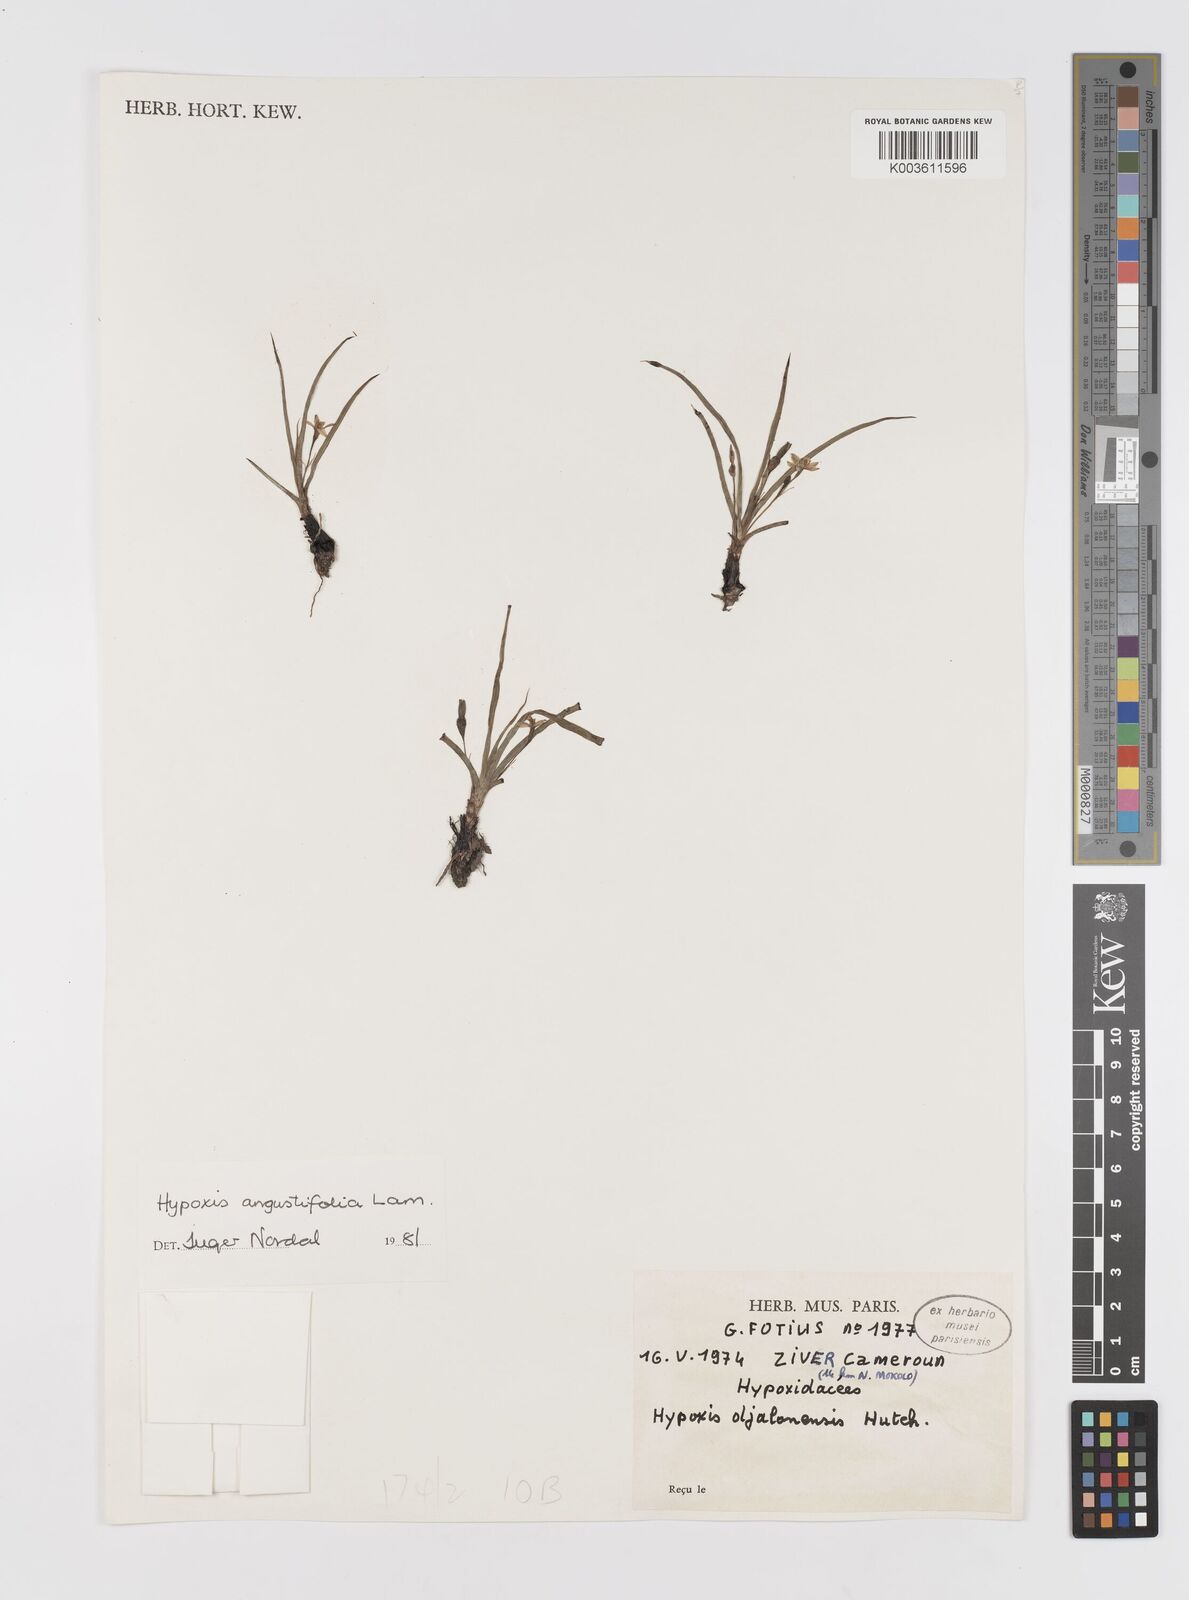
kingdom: Plantae
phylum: Tracheophyta
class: Liliopsida
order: Asparagales
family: Hypoxidaceae
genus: Hypoxis
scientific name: Hypoxis angustifolia
